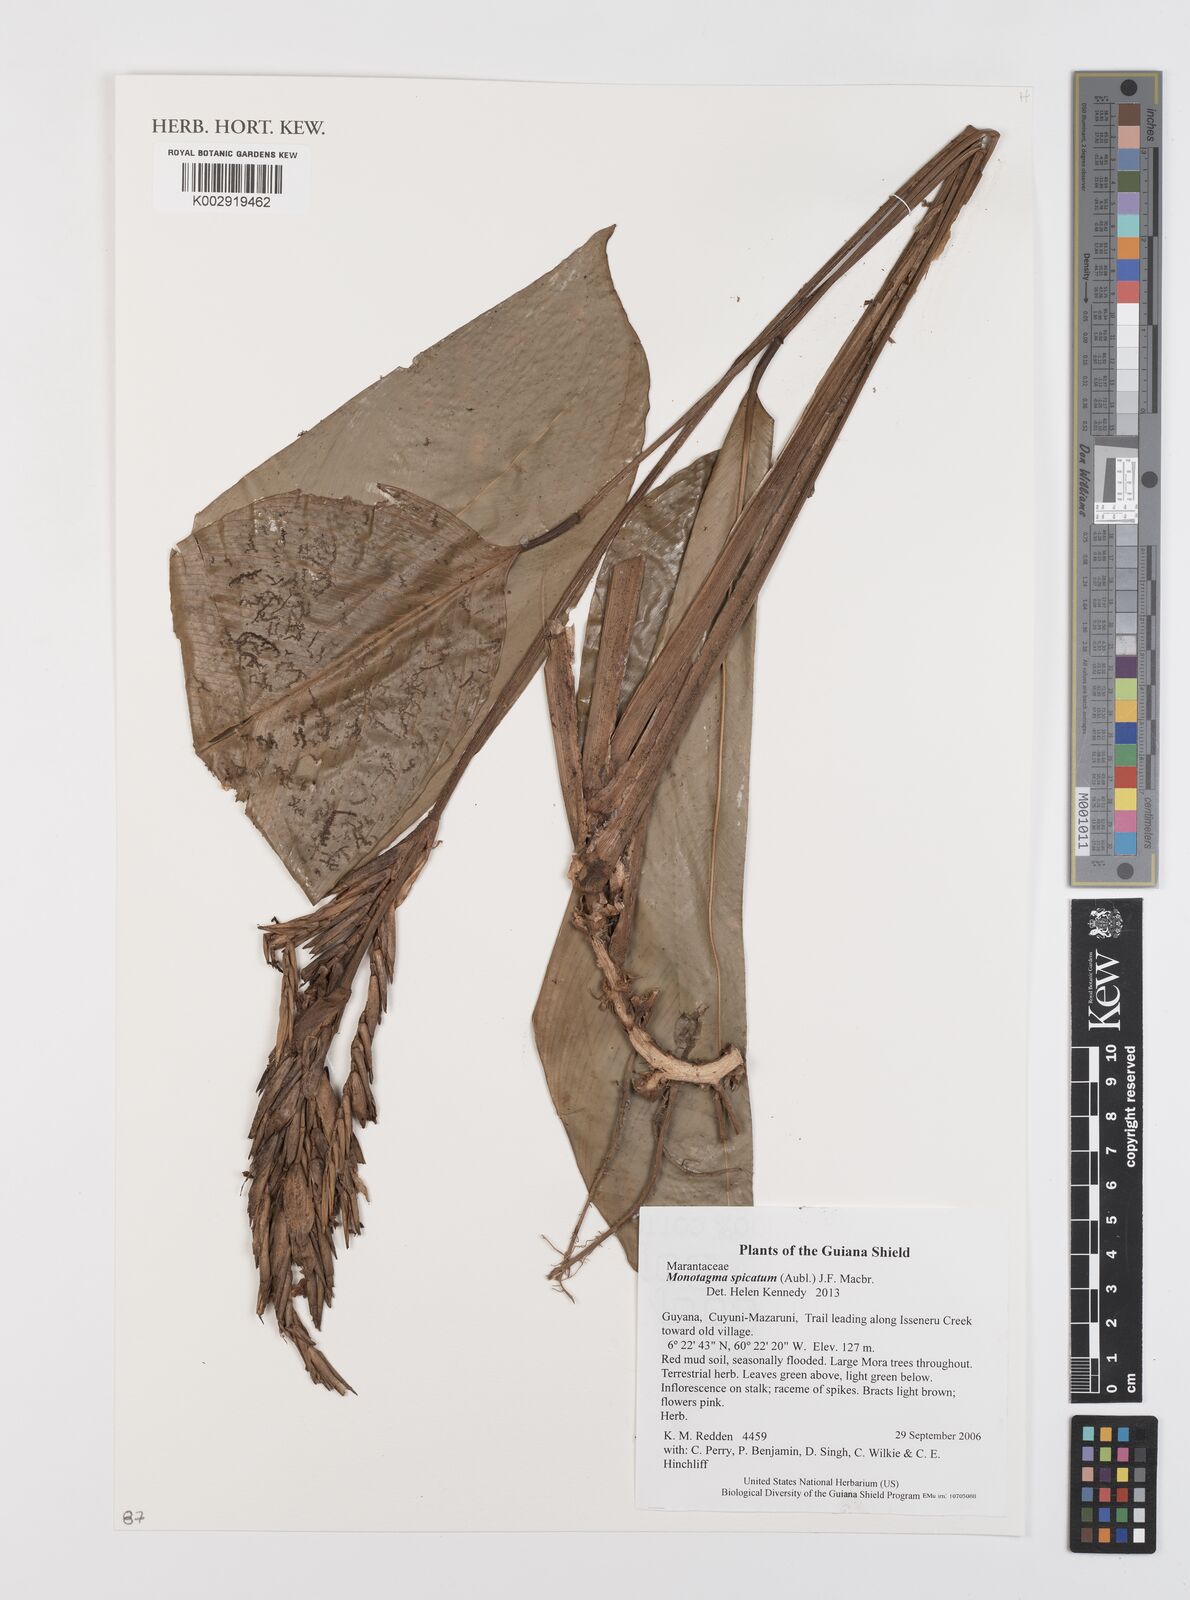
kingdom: Plantae
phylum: Tracheophyta
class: Liliopsida
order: Zingiberales
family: Marantaceae
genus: Monotagma
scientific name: Monotagma spicatum
